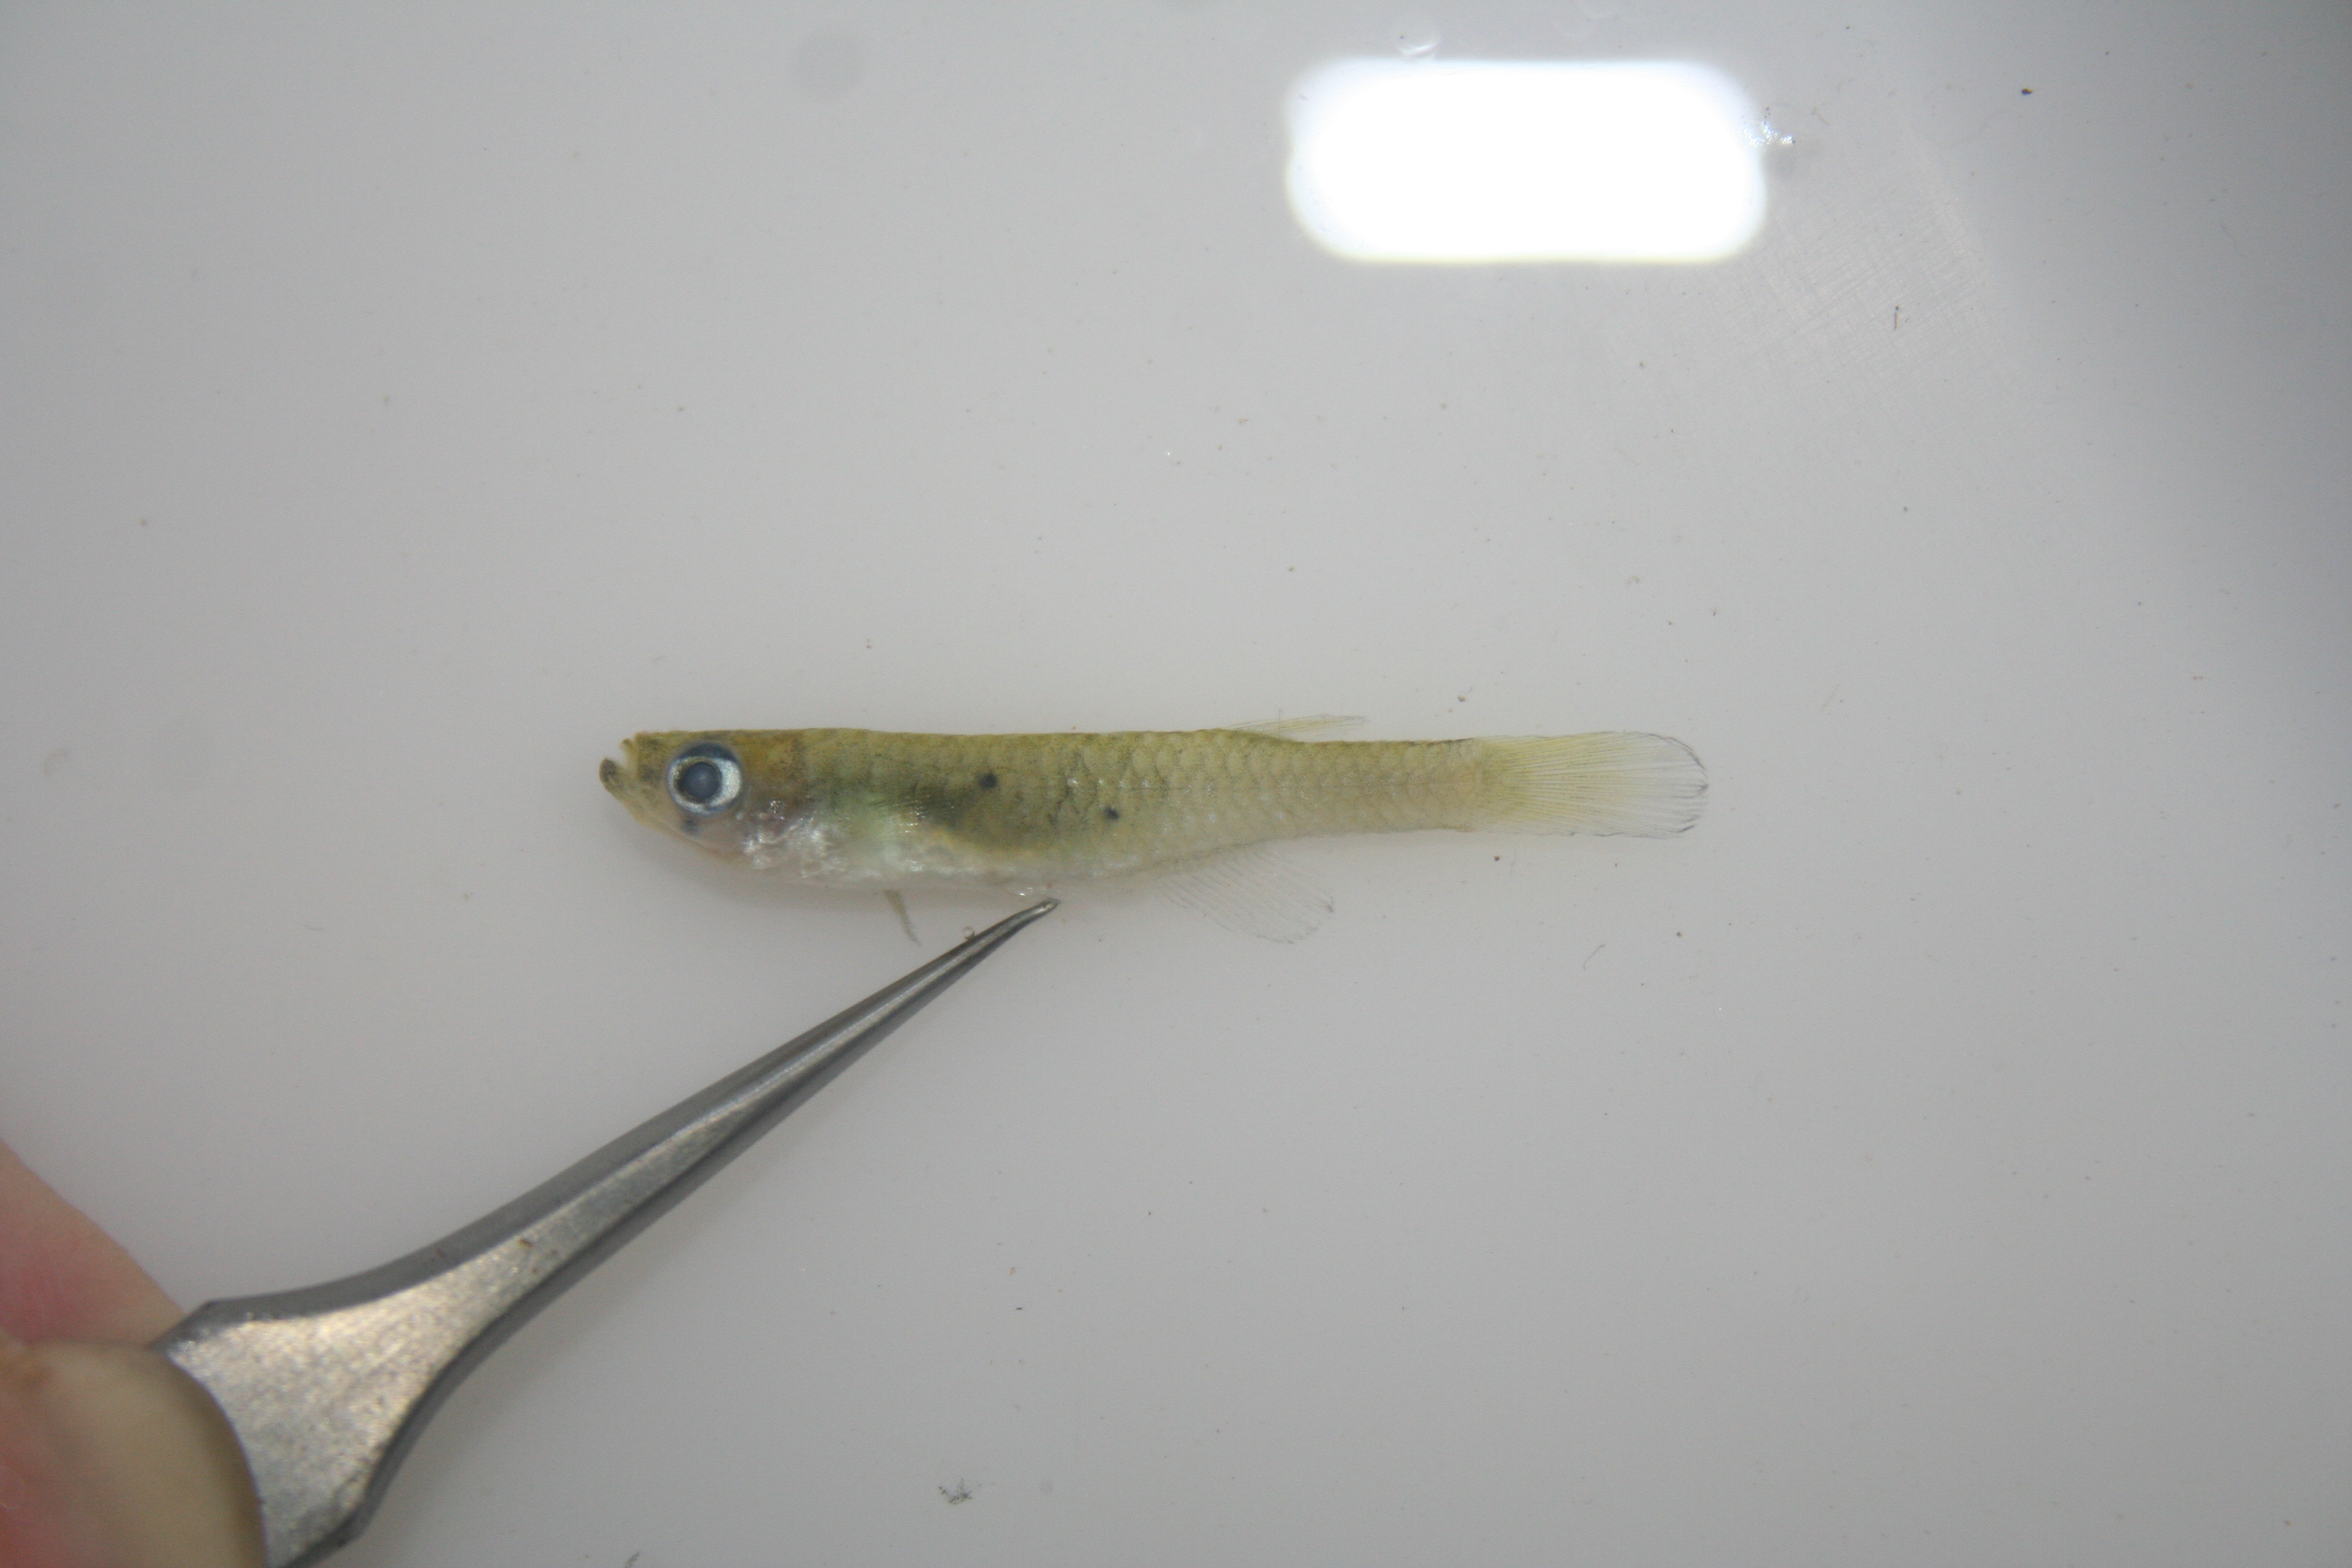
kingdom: Animalia
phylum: Chordata
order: Cyprinodontiformes
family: Poeciliidae
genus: Lacustricola
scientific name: Lacustricola
